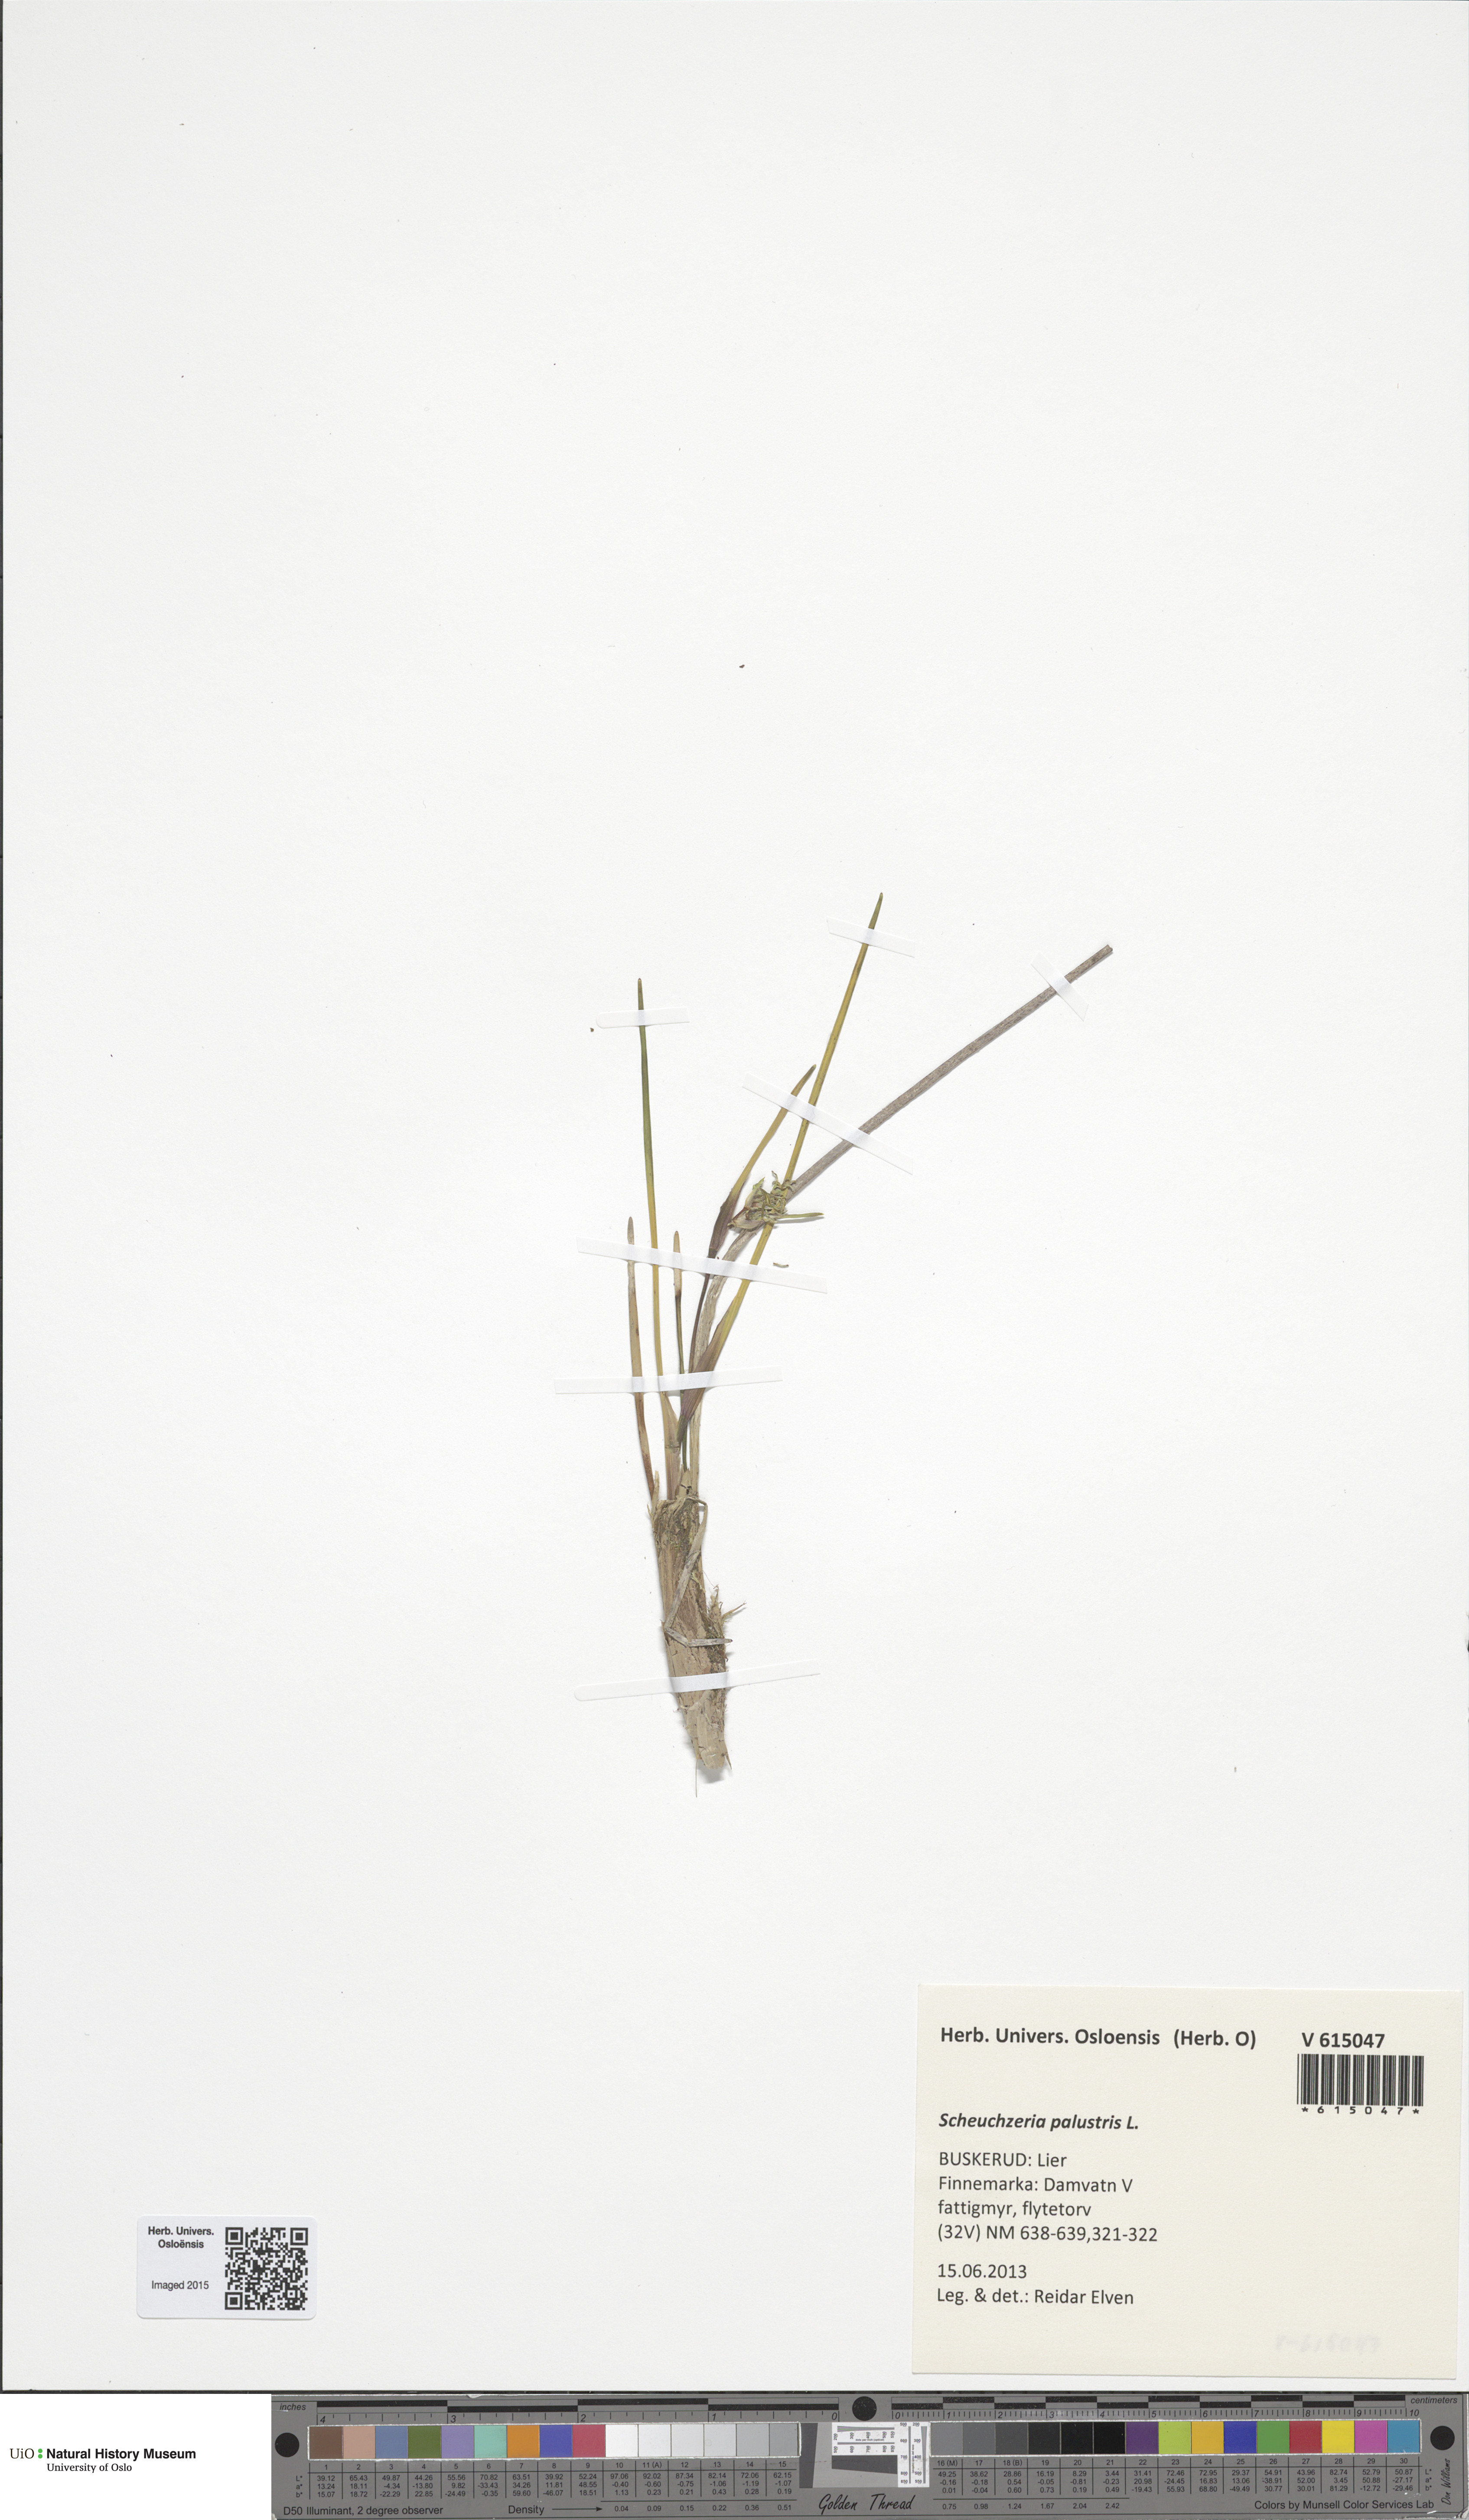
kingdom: Plantae
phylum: Tracheophyta
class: Liliopsida
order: Alismatales
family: Scheuchzeriaceae
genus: Scheuchzeria
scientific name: Scheuchzeria palustris
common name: Rannoch-rush
